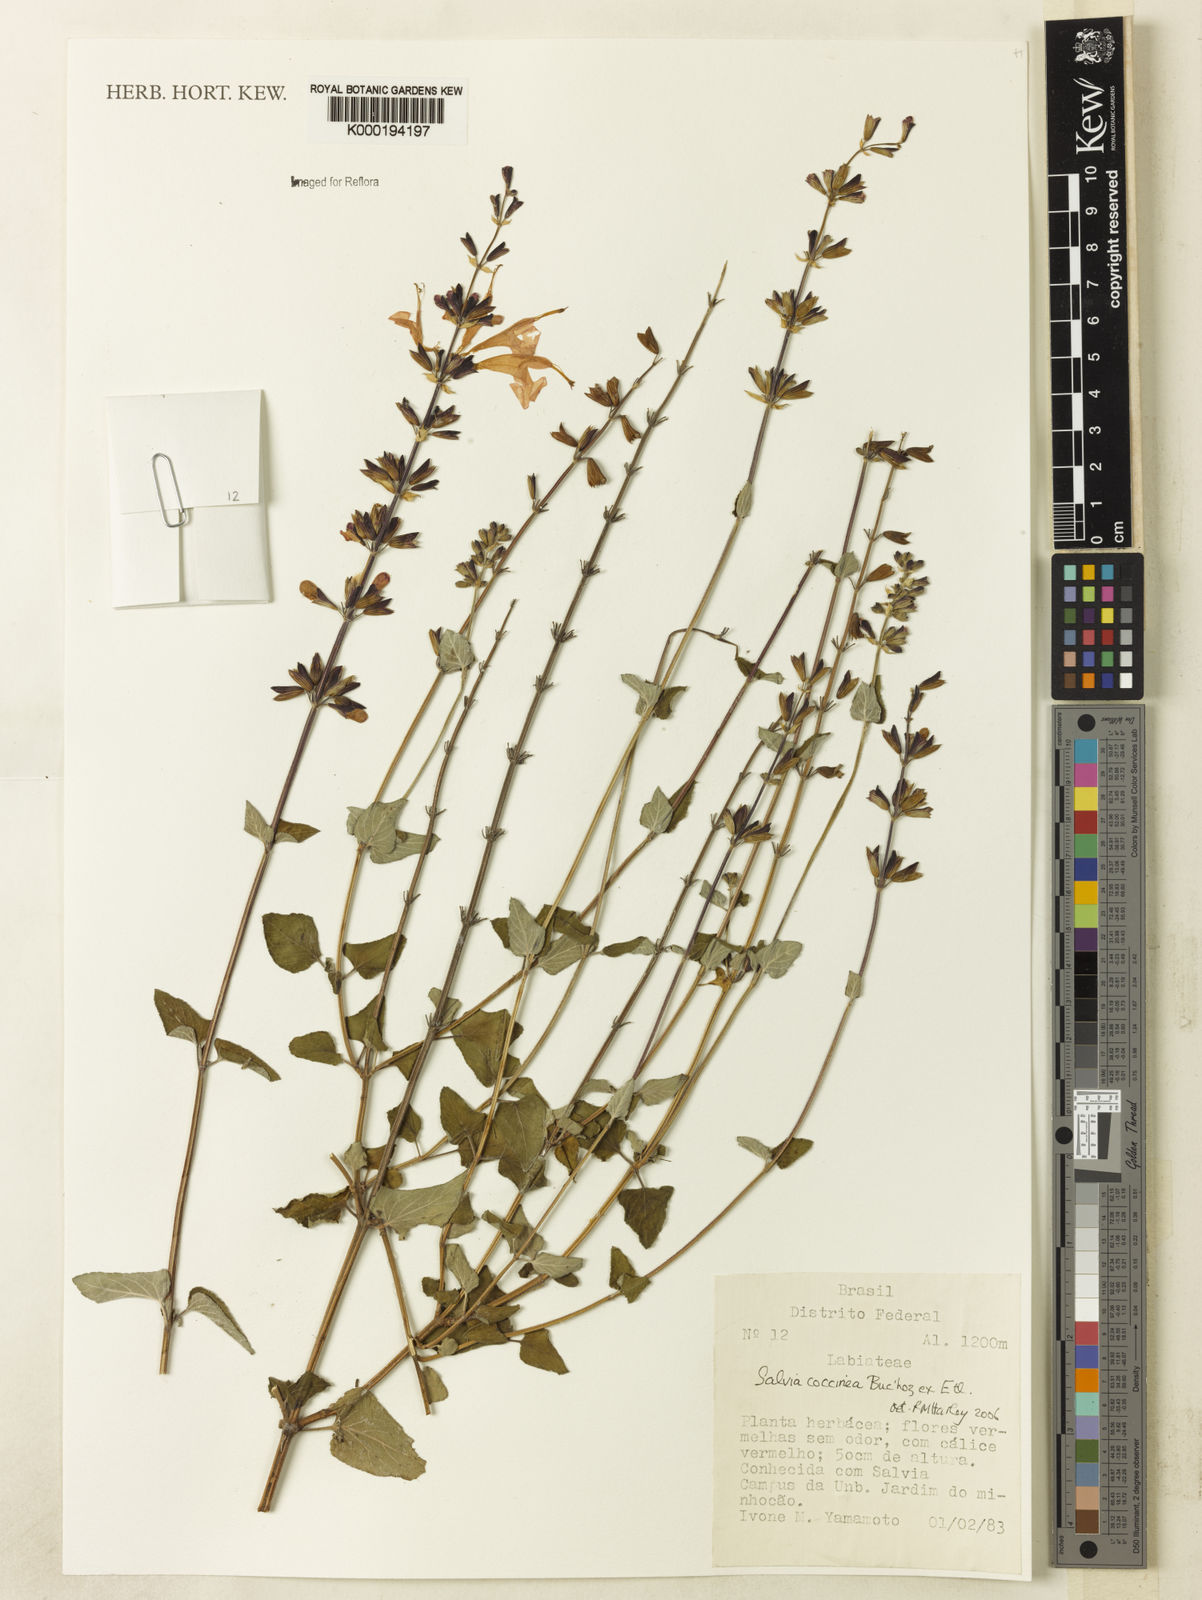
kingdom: Plantae
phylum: Tracheophyta
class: Magnoliopsida
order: Lamiales
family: Lamiaceae
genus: Salvia
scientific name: Salvia coccinea
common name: Blood sage
